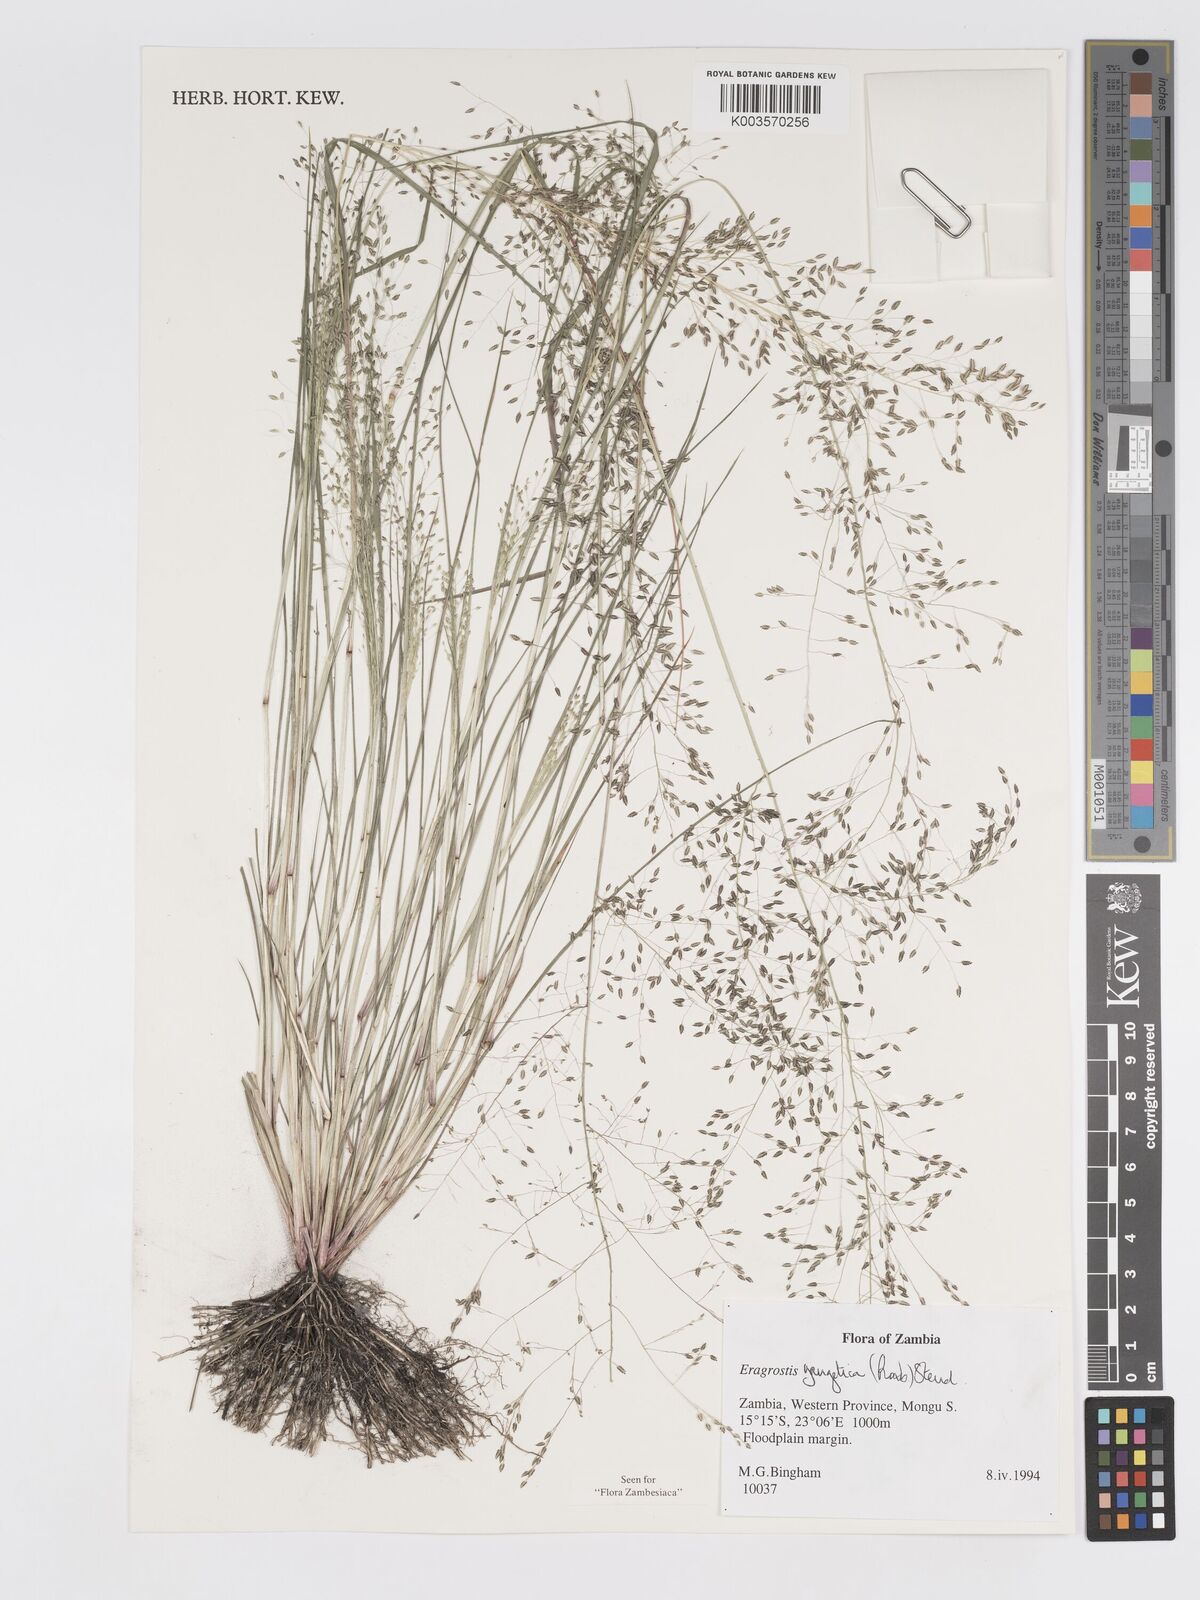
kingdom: Plantae
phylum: Tracheophyta
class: Liliopsida
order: Poales
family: Poaceae
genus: Eragrostis
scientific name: Eragrostis gangetica
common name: Slimflower lovegrass
